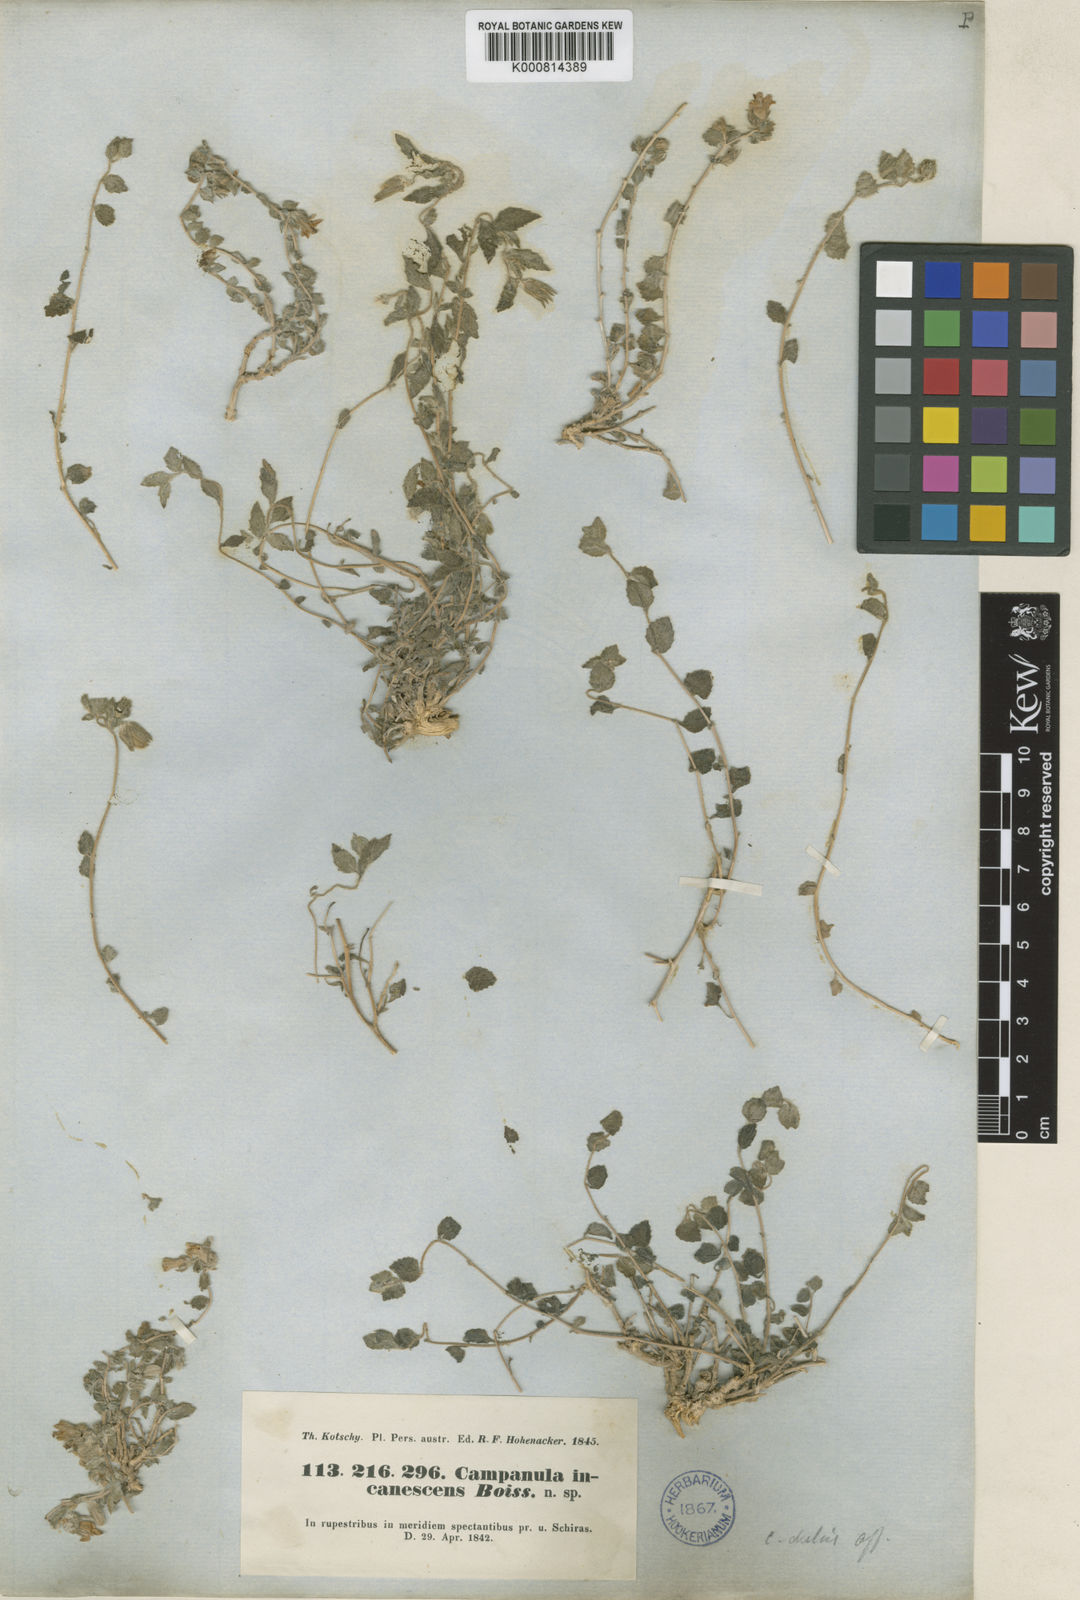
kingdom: Plantae
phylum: Tracheophyta
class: Magnoliopsida
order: Asterales
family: Campanulaceae
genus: Campanula
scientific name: Campanula incanescens
